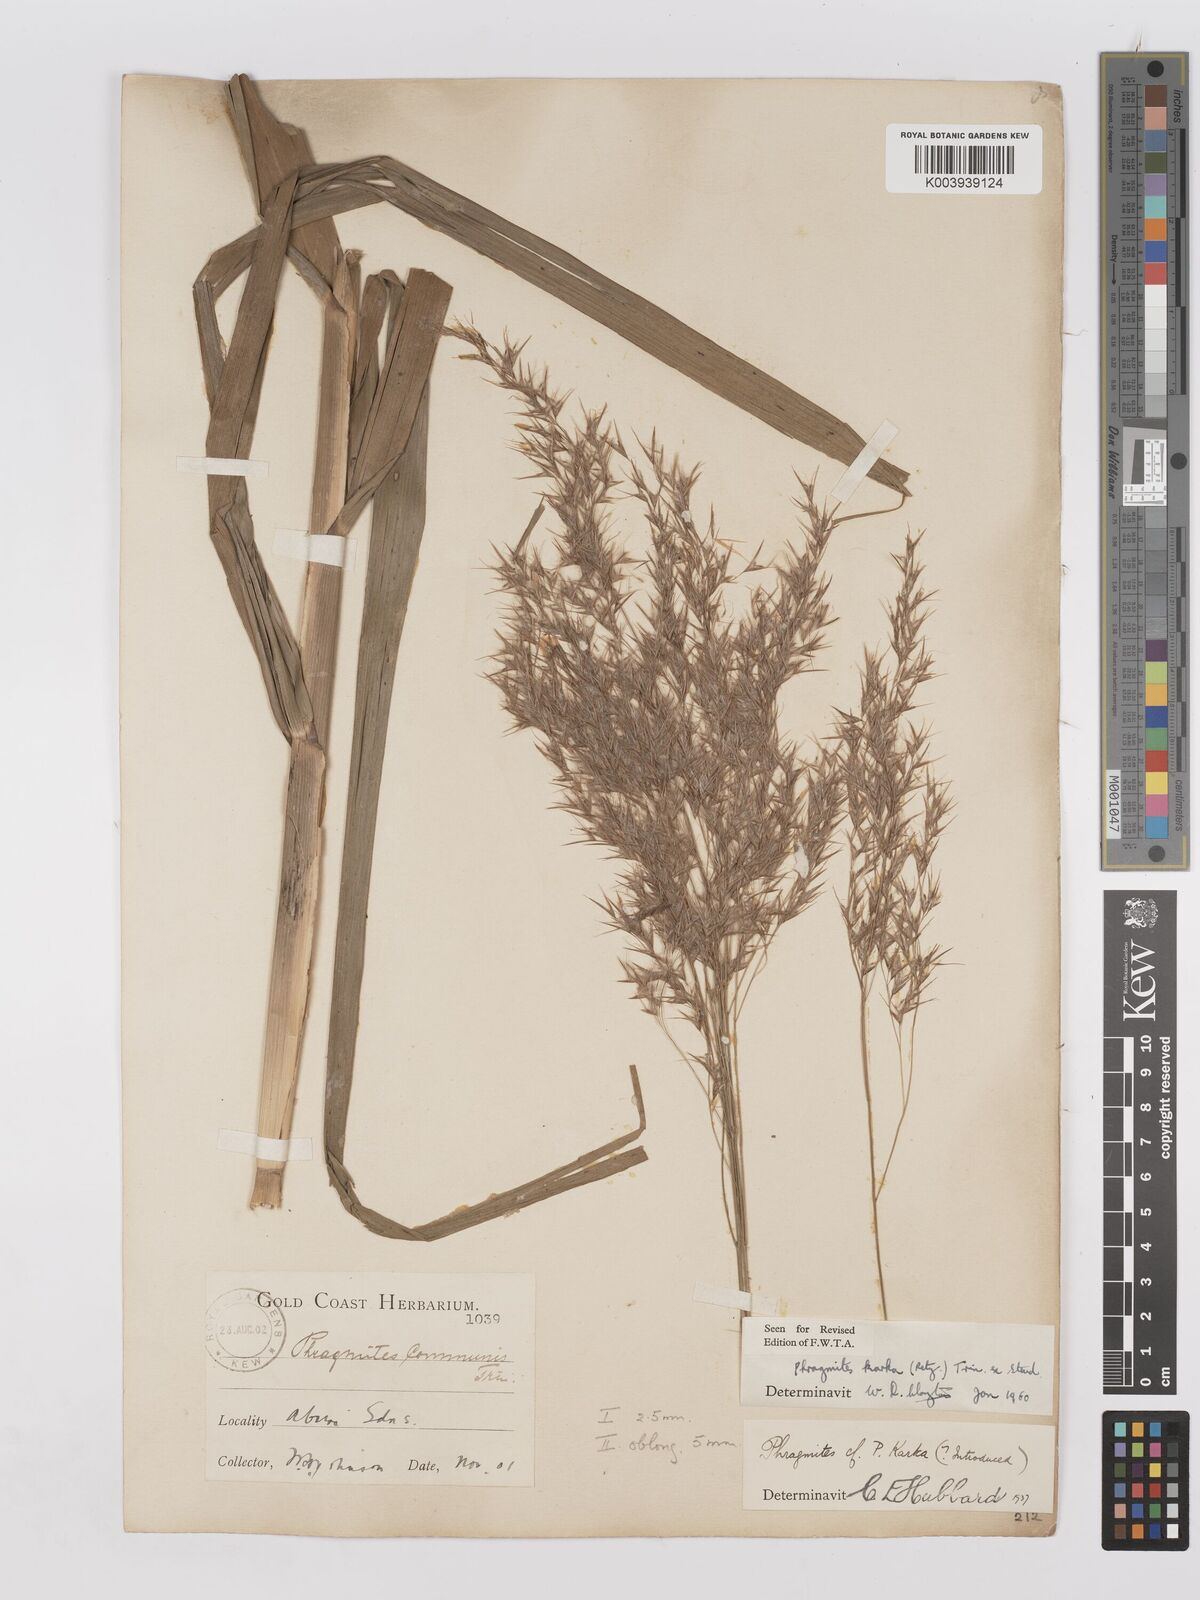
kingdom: Plantae
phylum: Tracheophyta
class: Liliopsida
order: Poales
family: Poaceae
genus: Phragmites
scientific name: Phragmites karka
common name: Tropical reed
